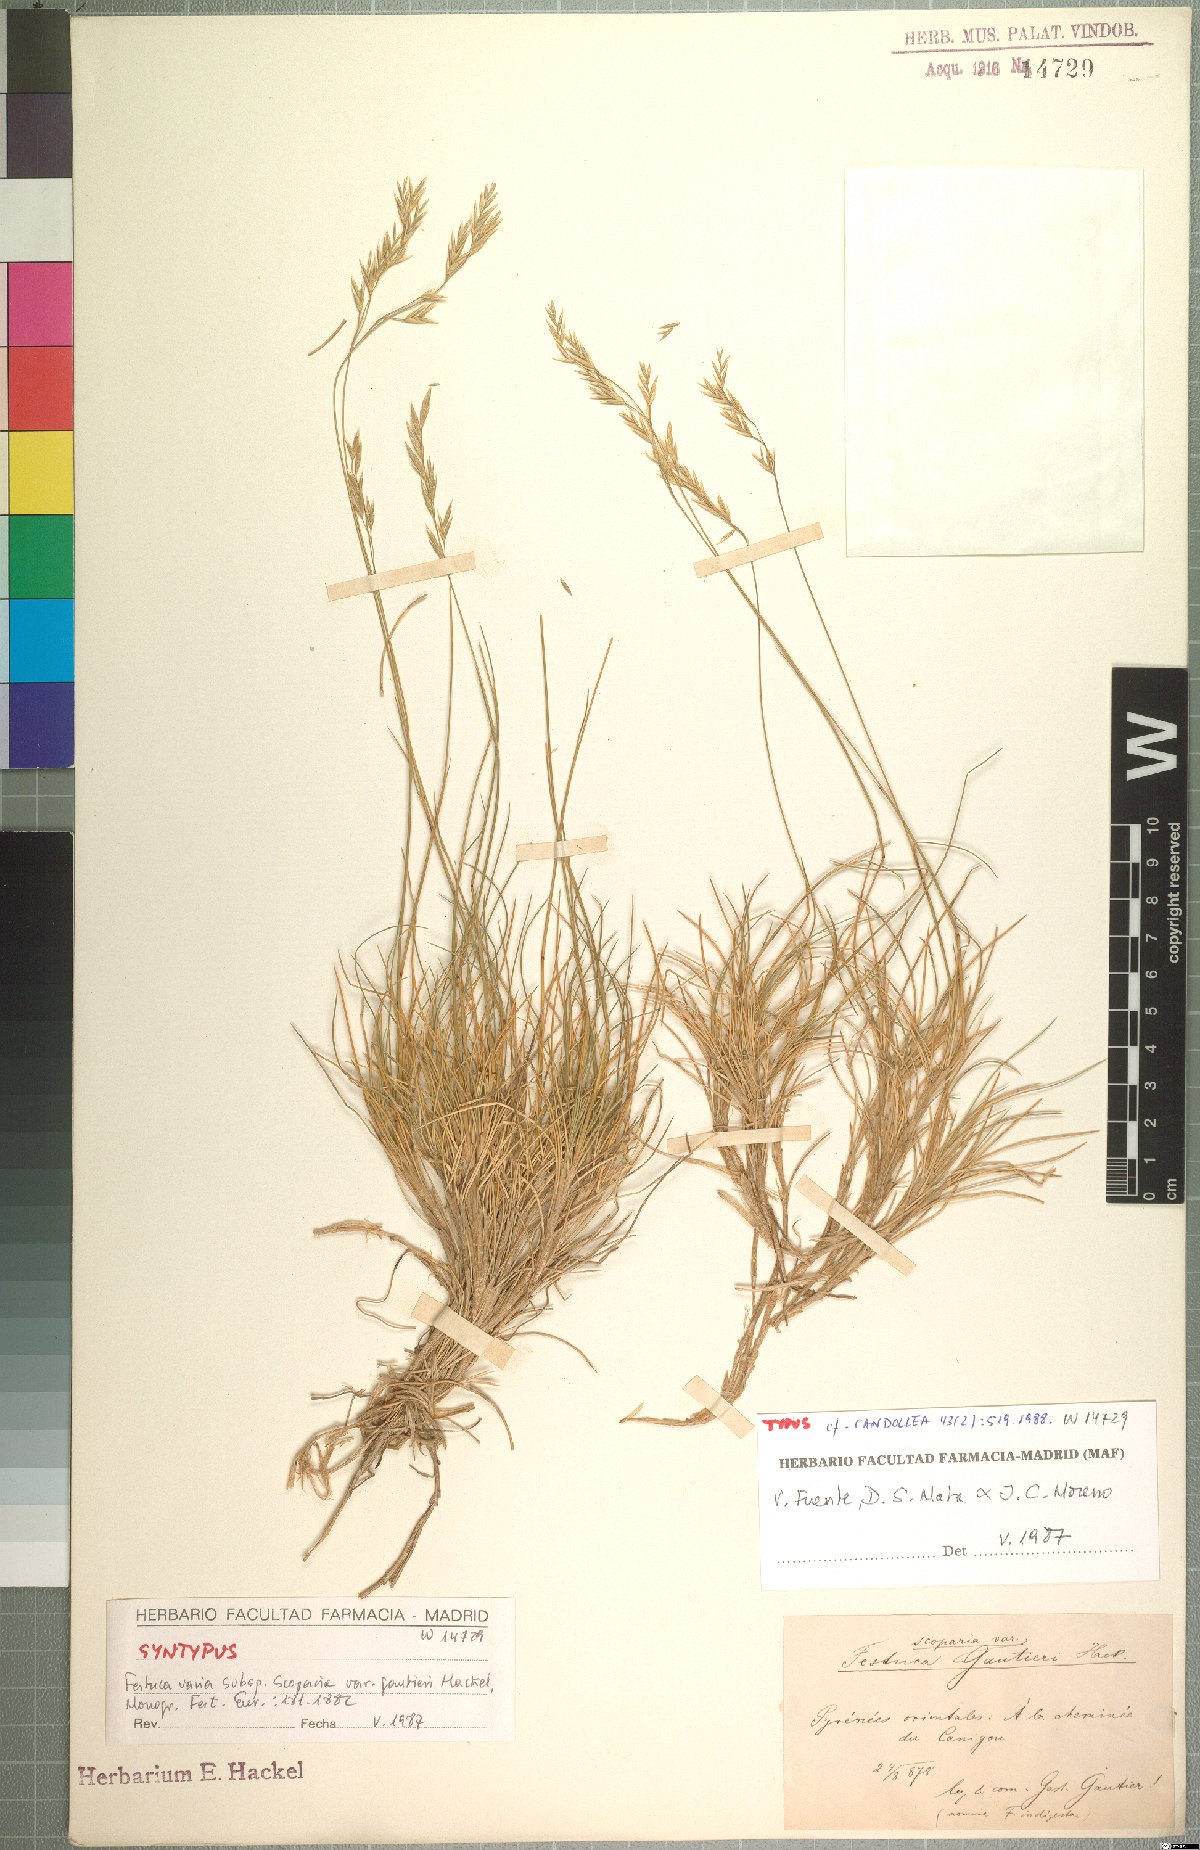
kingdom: Plantae
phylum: Tracheophyta
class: Liliopsida
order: Poales
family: Poaceae
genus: Festuca
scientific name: Festuca gautieri
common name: Spiky fescue
